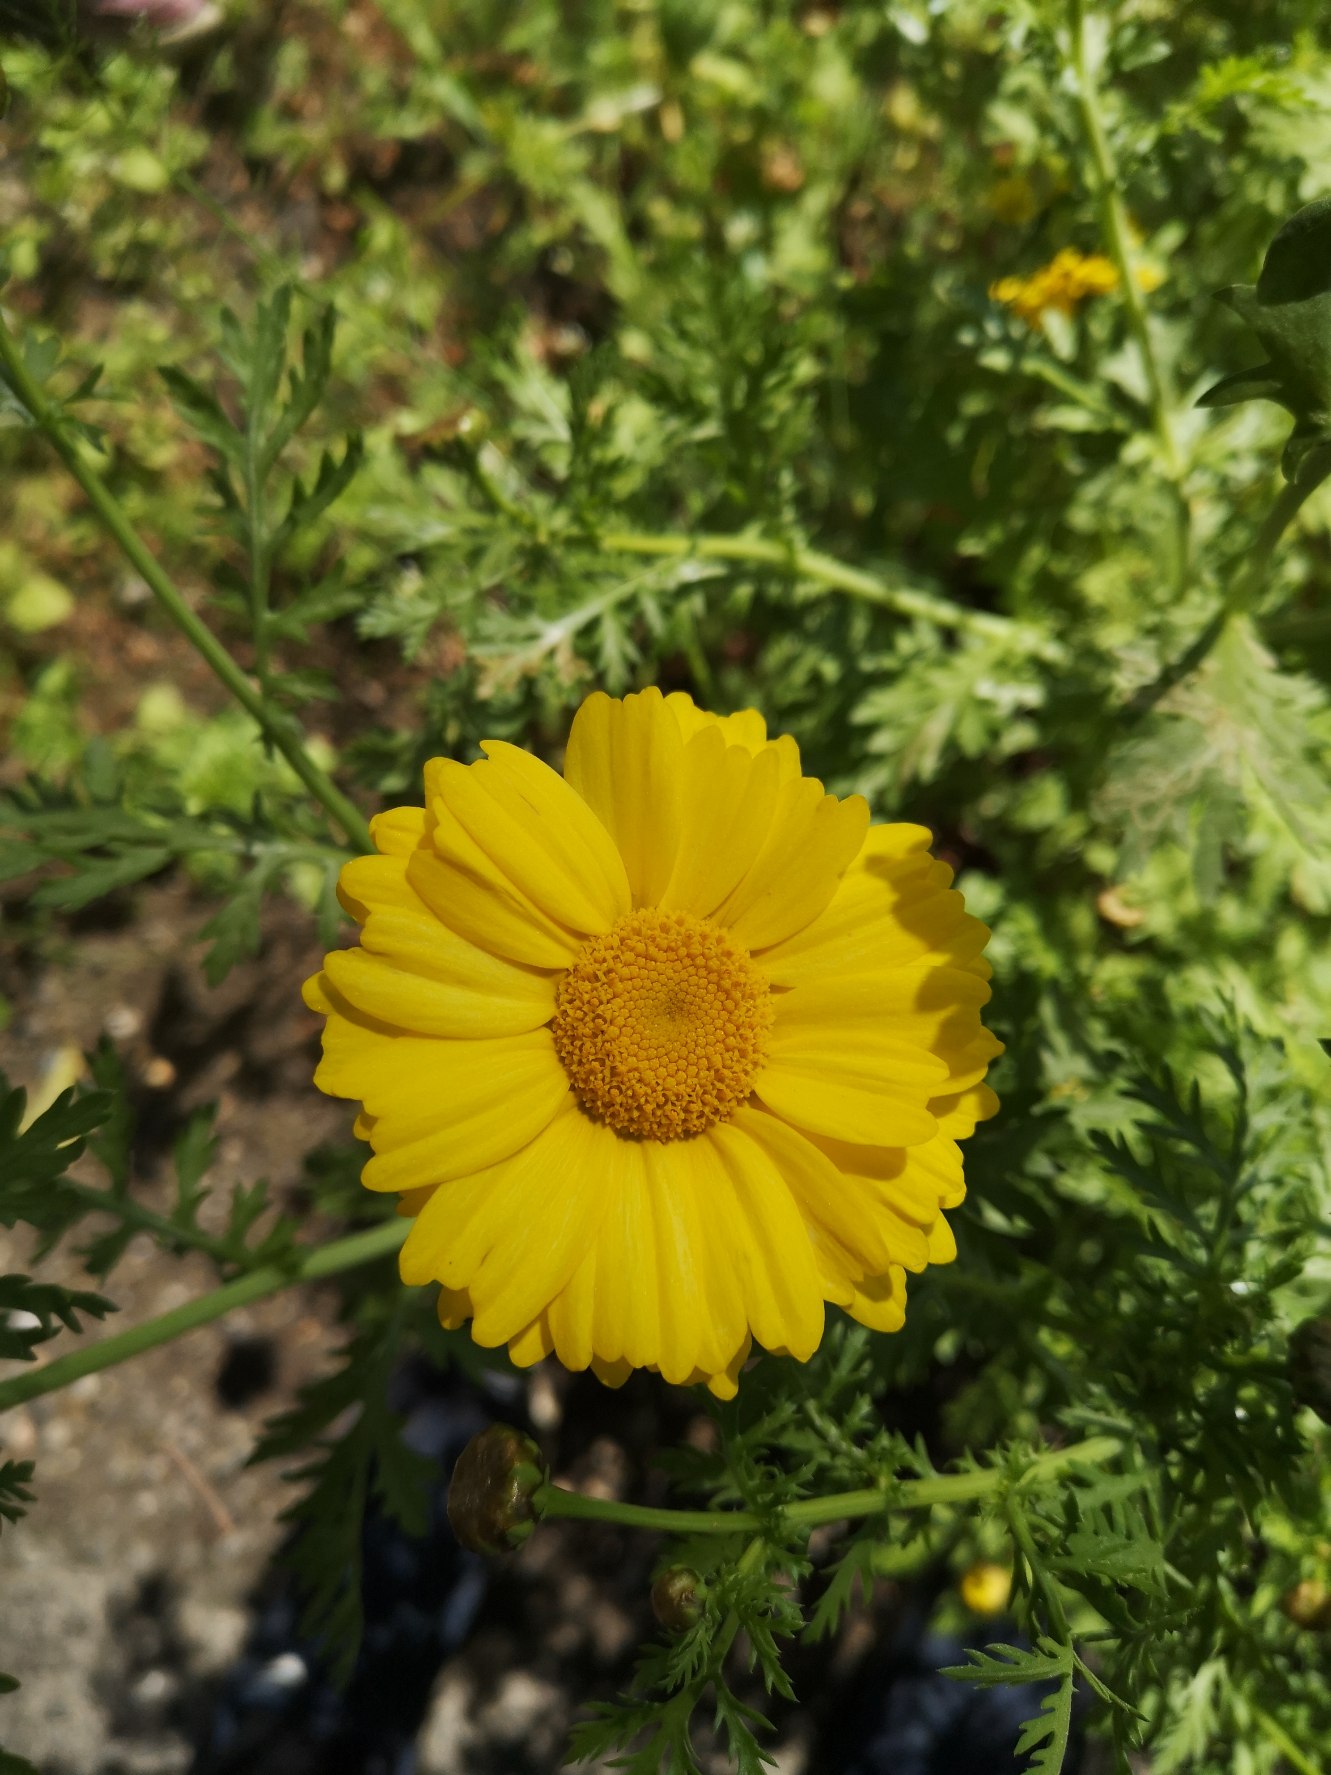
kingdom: Plantae
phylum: Tracheophyta
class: Magnoliopsida
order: Asterales
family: Asteraceae
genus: Glebionis
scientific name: Glebionis coronaria
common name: Kron-okseøje
